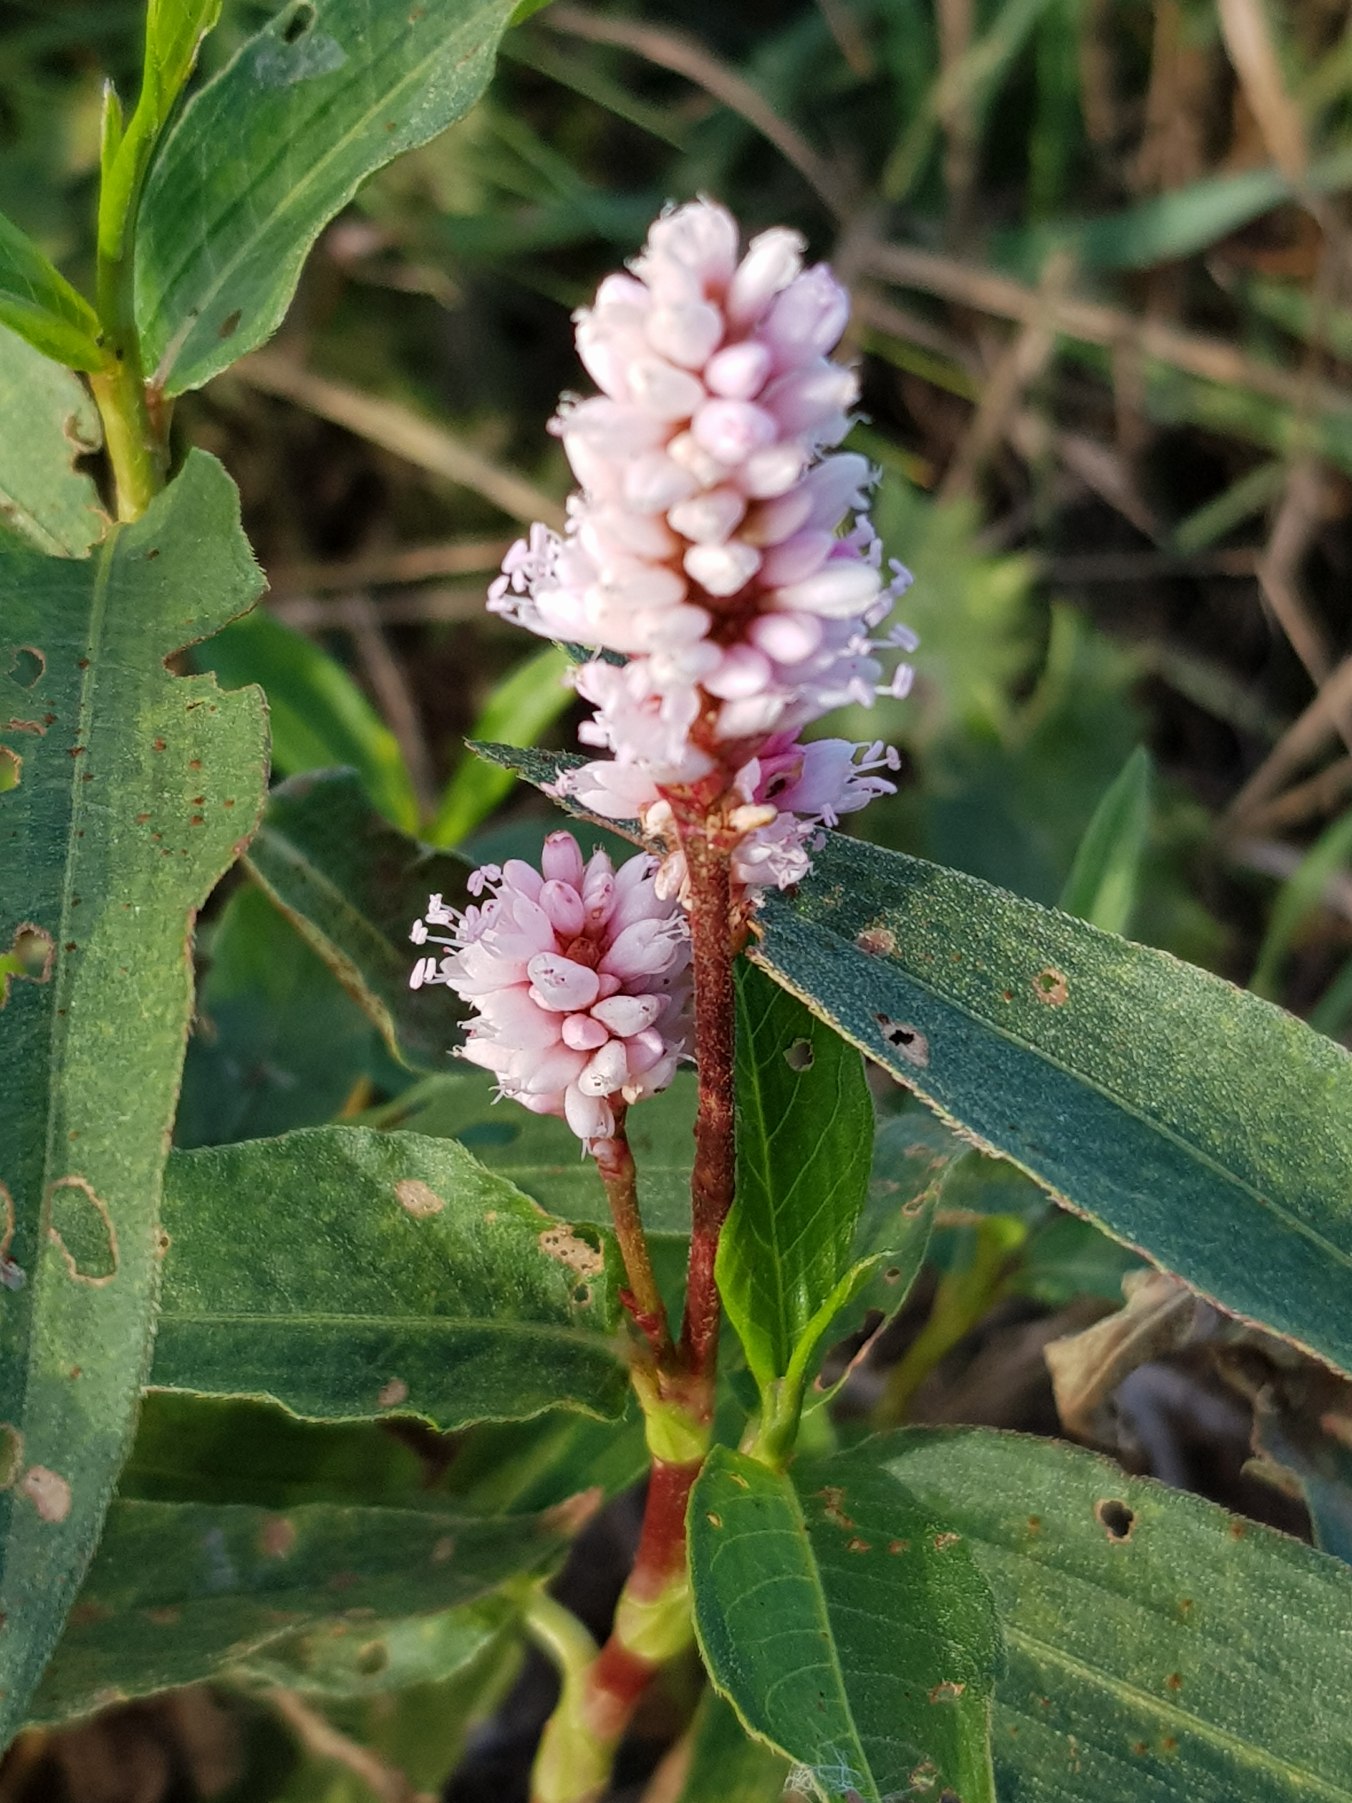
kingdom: Plantae
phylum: Tracheophyta
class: Magnoliopsida
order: Caryophyllales
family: Polygonaceae
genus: Persicaria
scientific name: Persicaria amphibia
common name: Vand-pileurt
